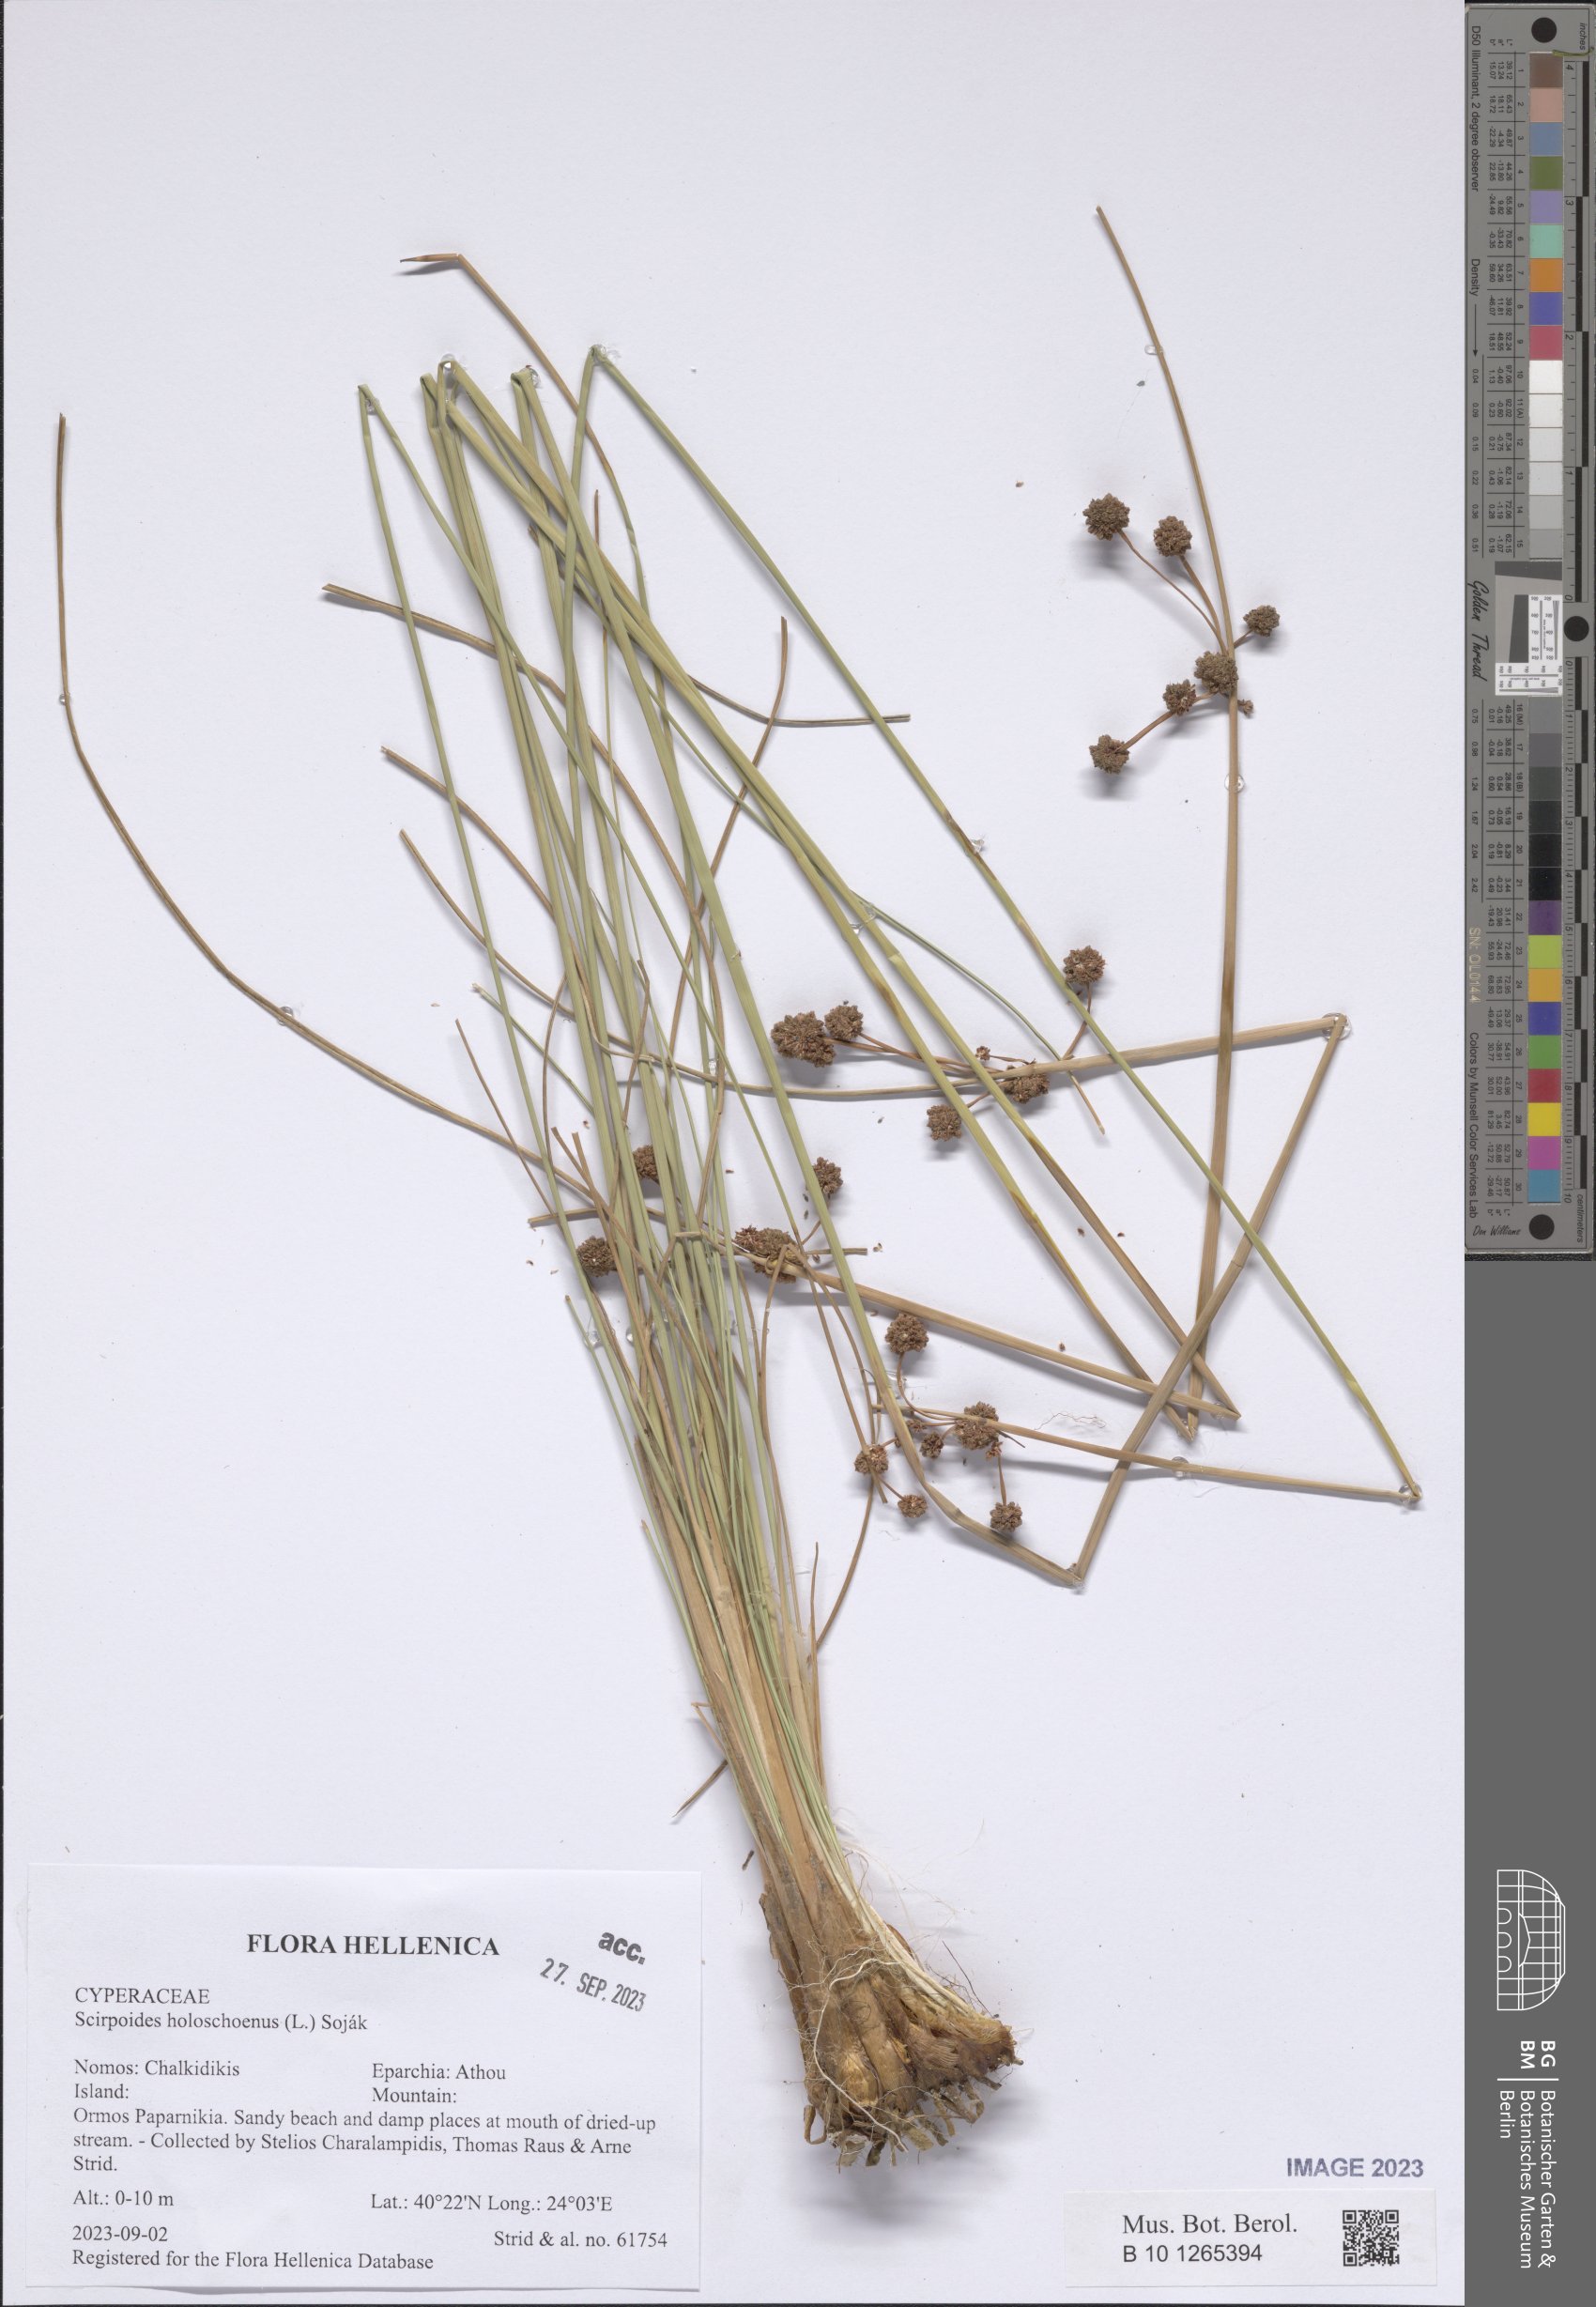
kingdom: Plantae
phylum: Tracheophyta
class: Liliopsida
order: Poales
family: Cyperaceae
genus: Scirpoides
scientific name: Scirpoides holoschoenus
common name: Round-headed club-rush
